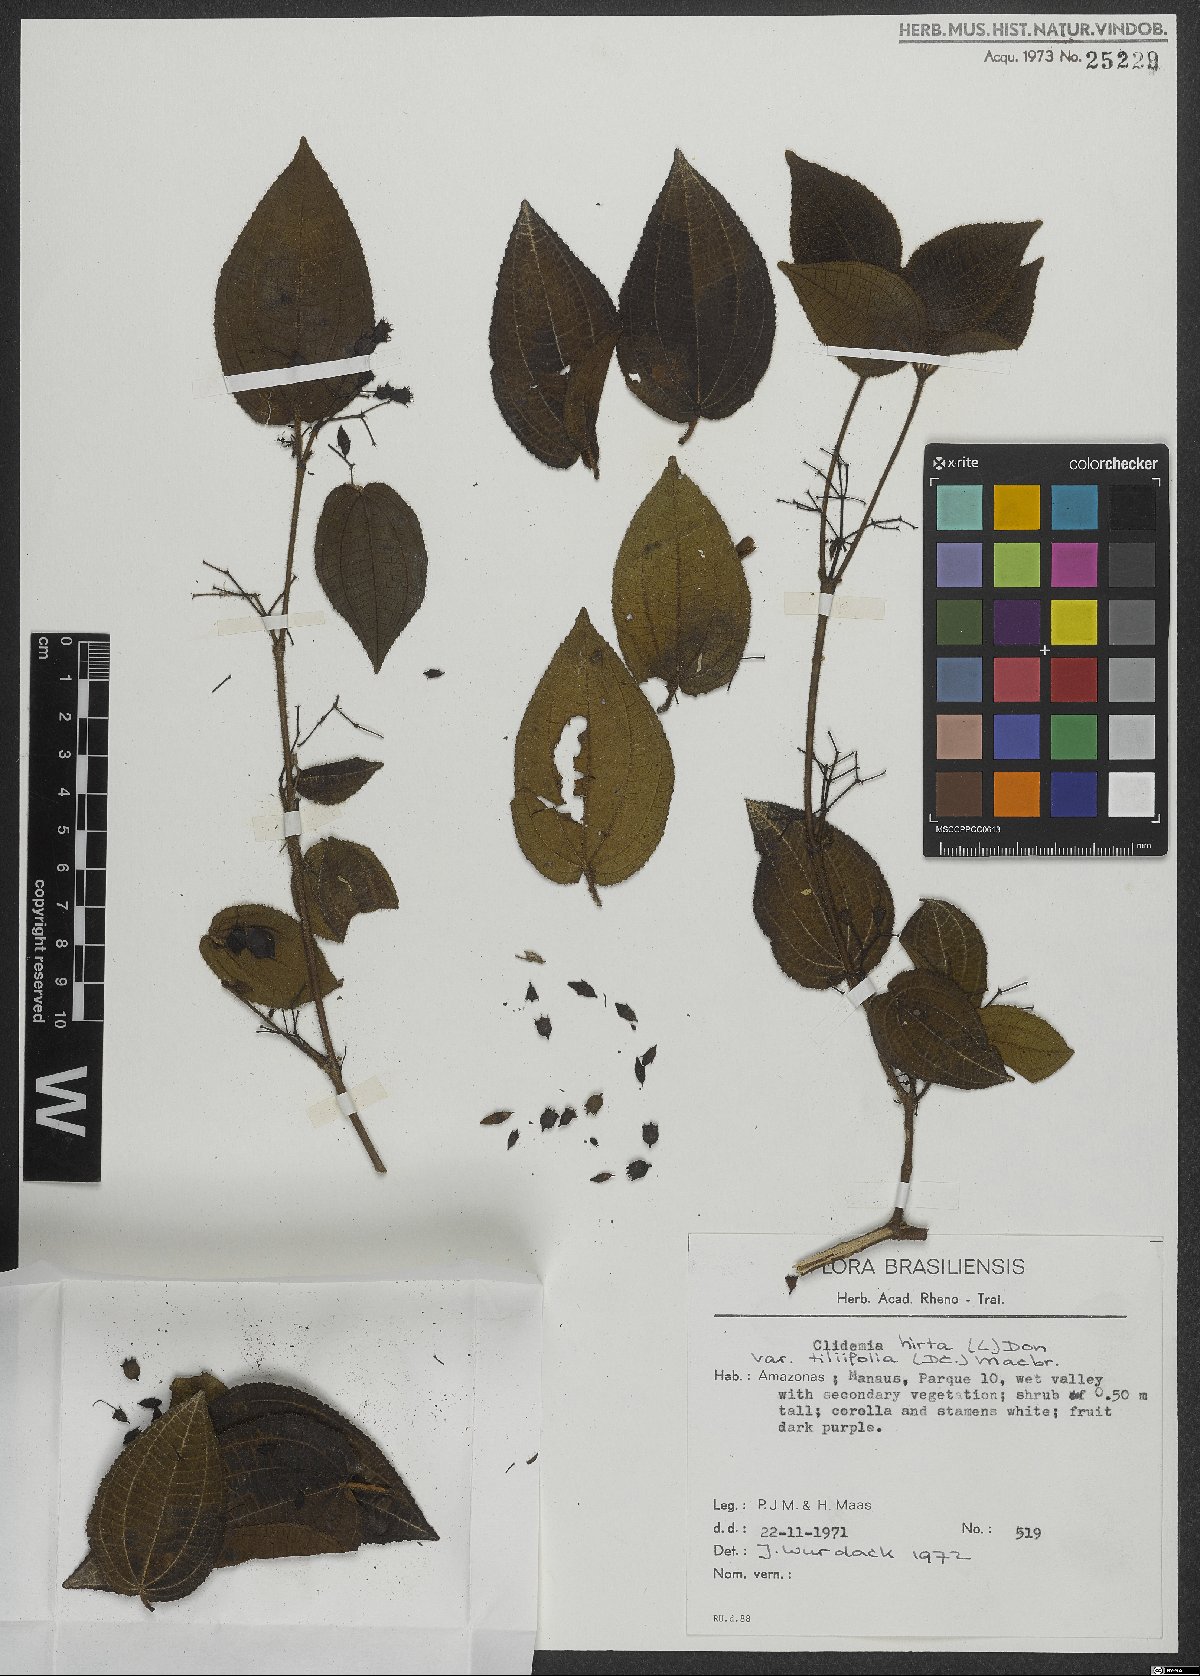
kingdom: Plantae
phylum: Tracheophyta
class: Magnoliopsida
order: Myrtales
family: Melastomataceae
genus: Miconia
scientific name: Miconia crenata
